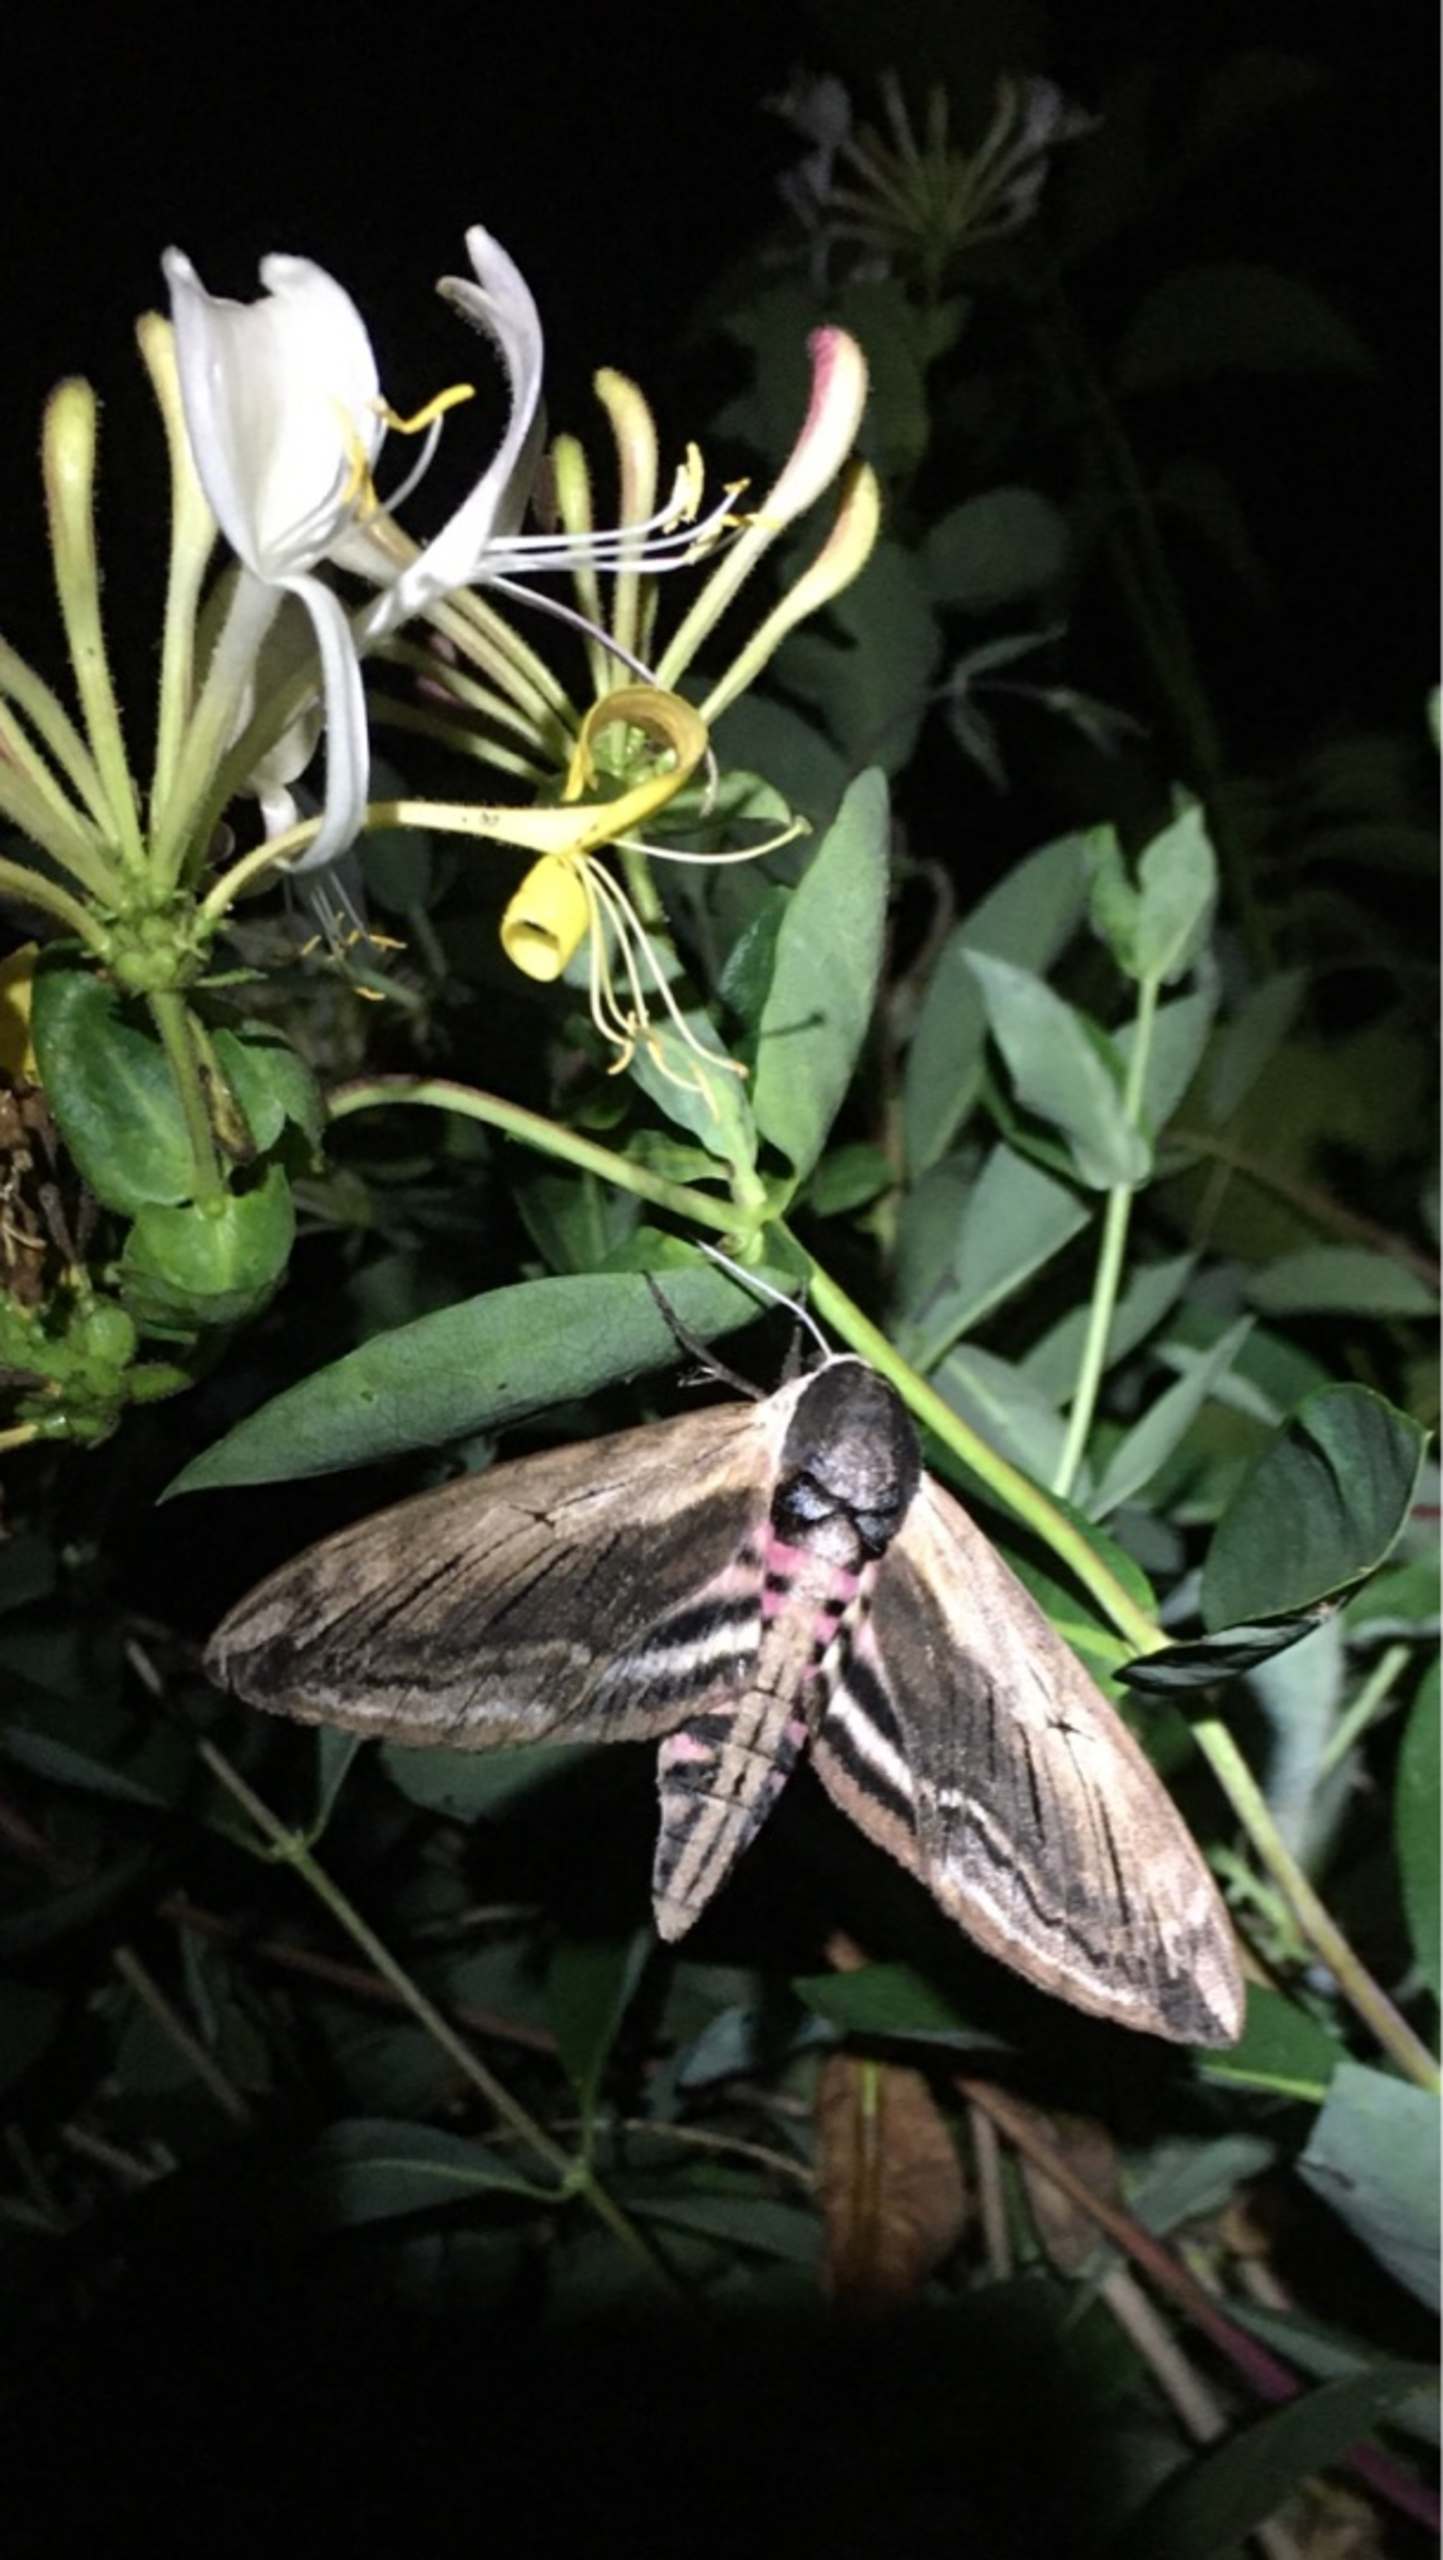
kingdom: Animalia
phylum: Arthropoda
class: Insecta
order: Lepidoptera
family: Sphingidae
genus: Sphinx
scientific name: Sphinx ligustri
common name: Ligustersværmer
